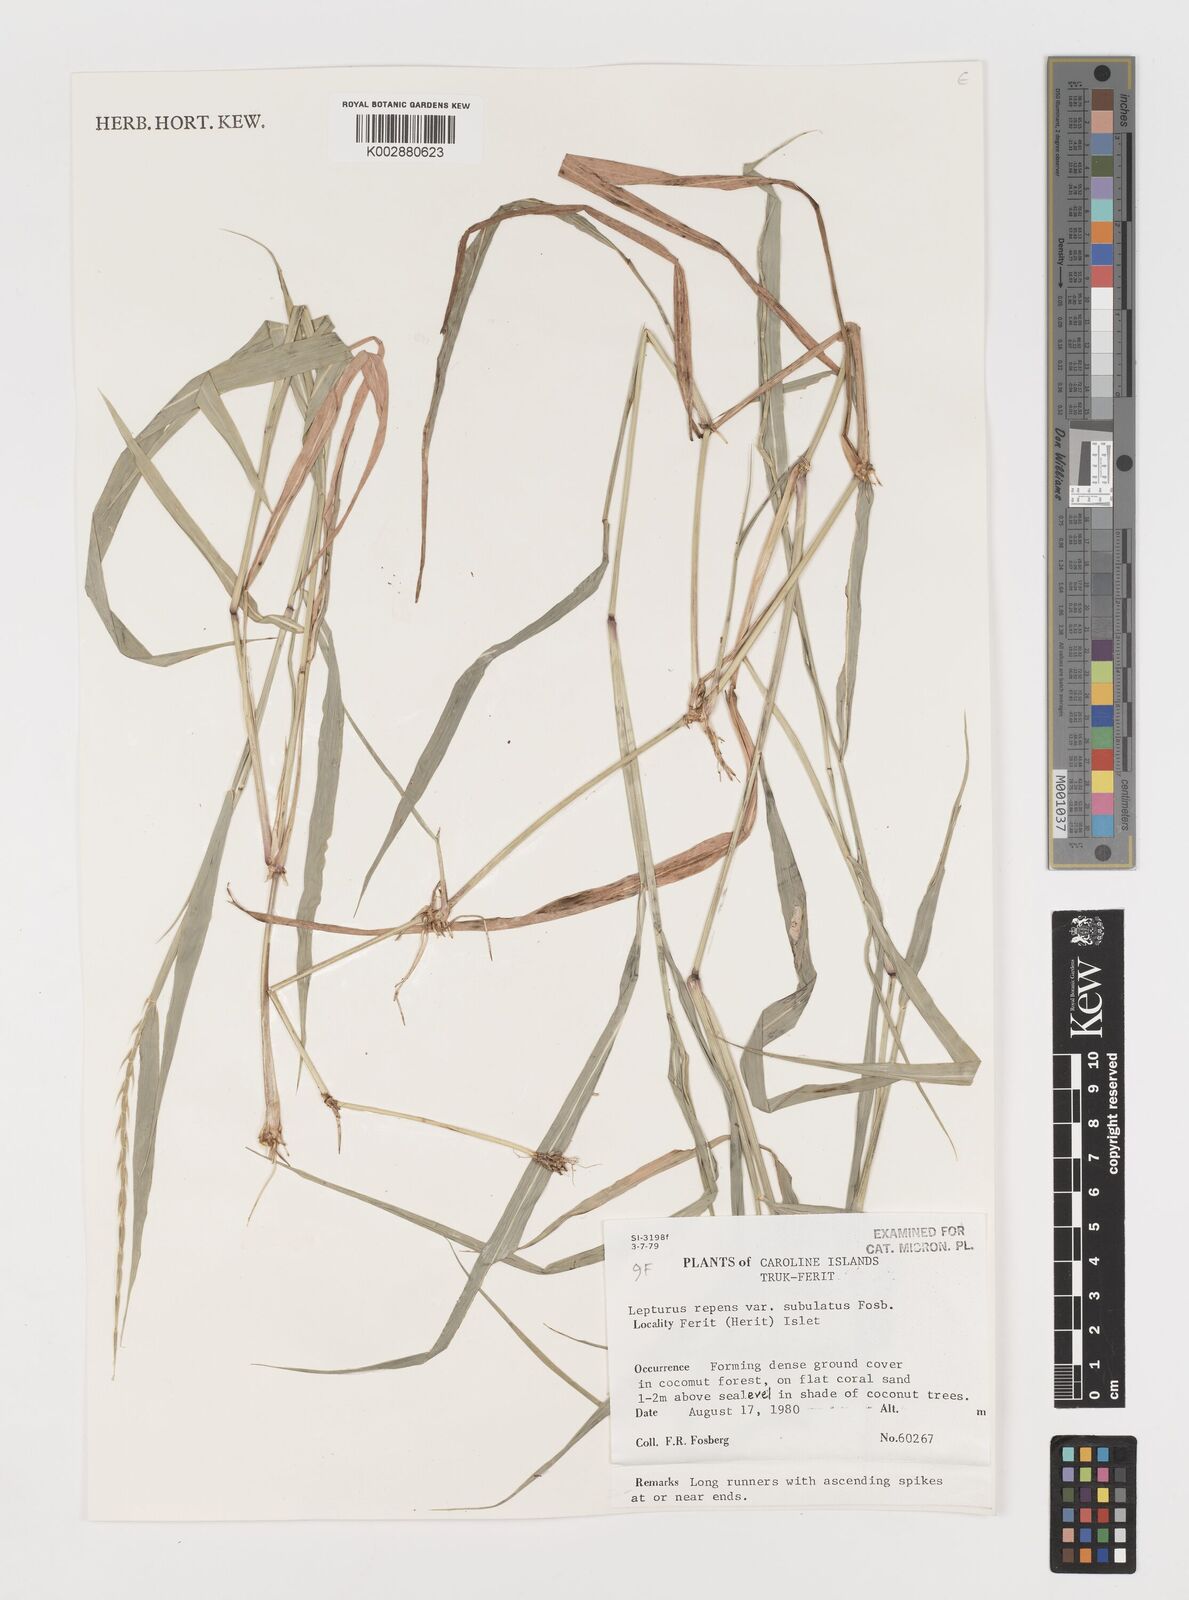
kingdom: Plantae
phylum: Tracheophyta
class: Liliopsida
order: Poales
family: Poaceae
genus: Lepturus
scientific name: Lepturus repens
